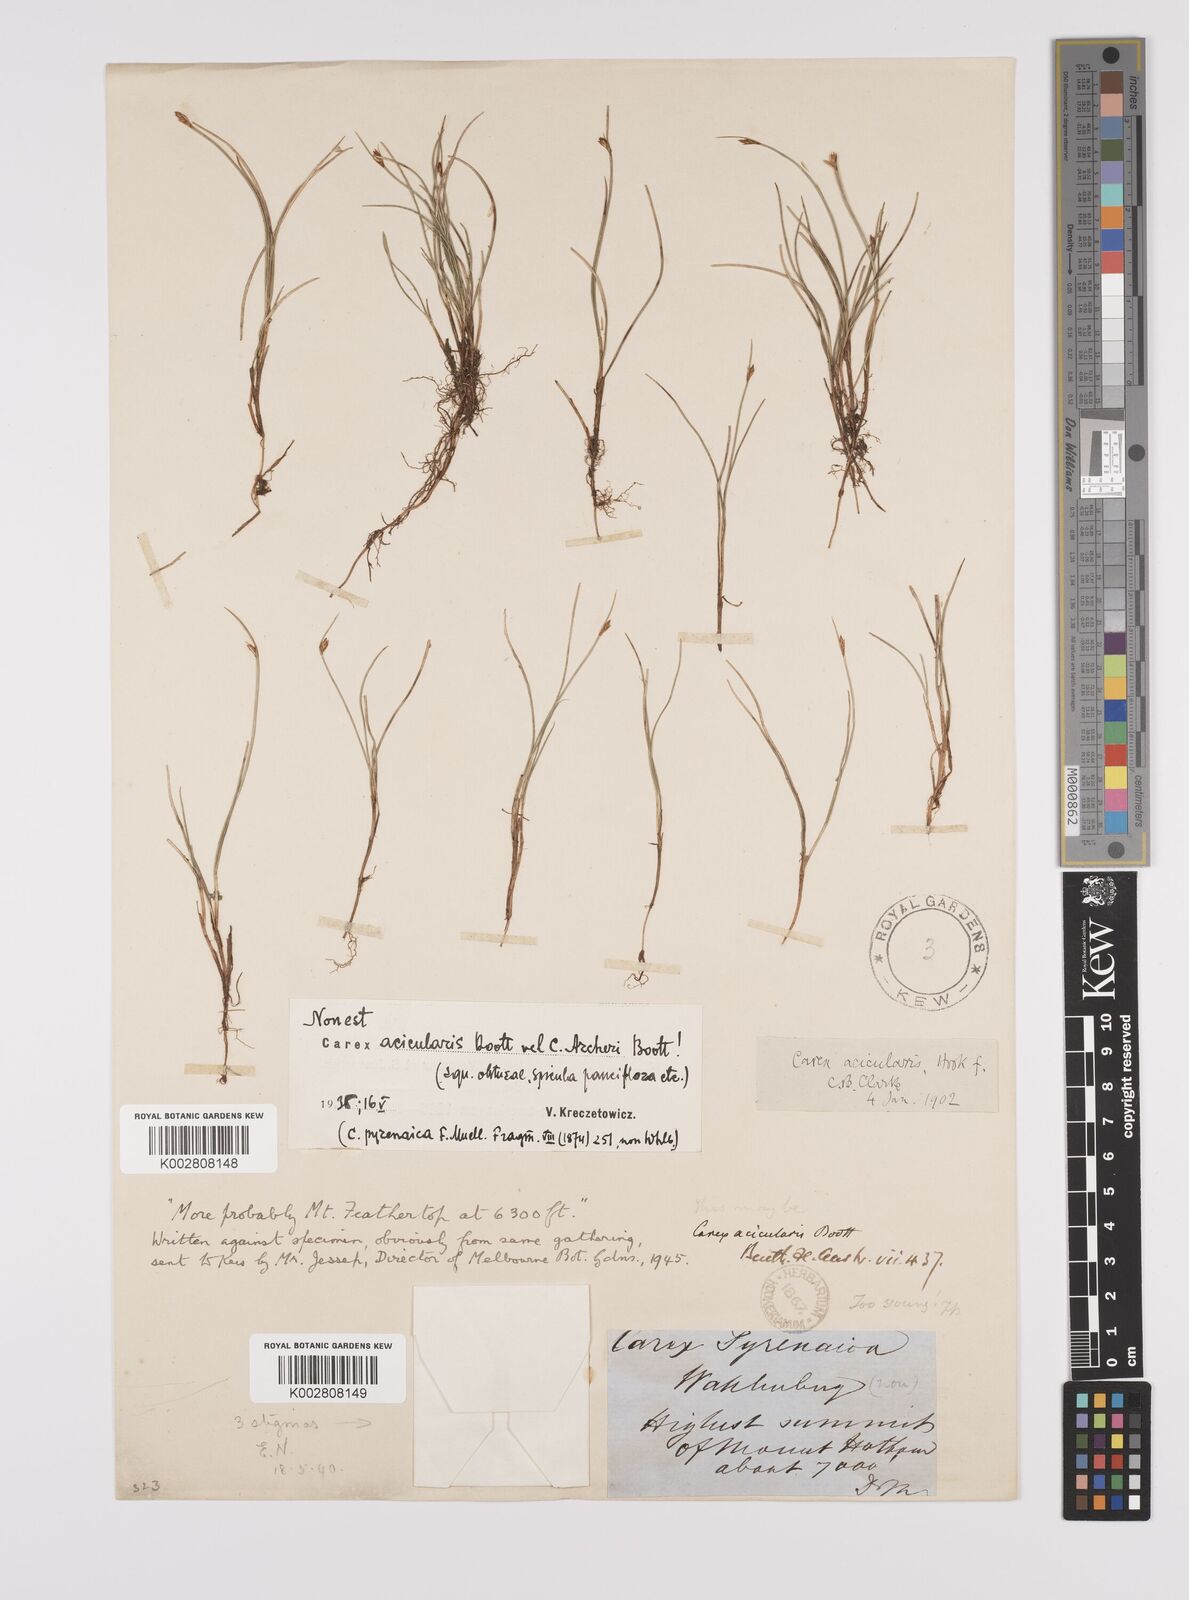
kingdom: Plantae
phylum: Tracheophyta
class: Liliopsida
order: Poales
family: Cyperaceae
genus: Carex
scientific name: Carex archeri
